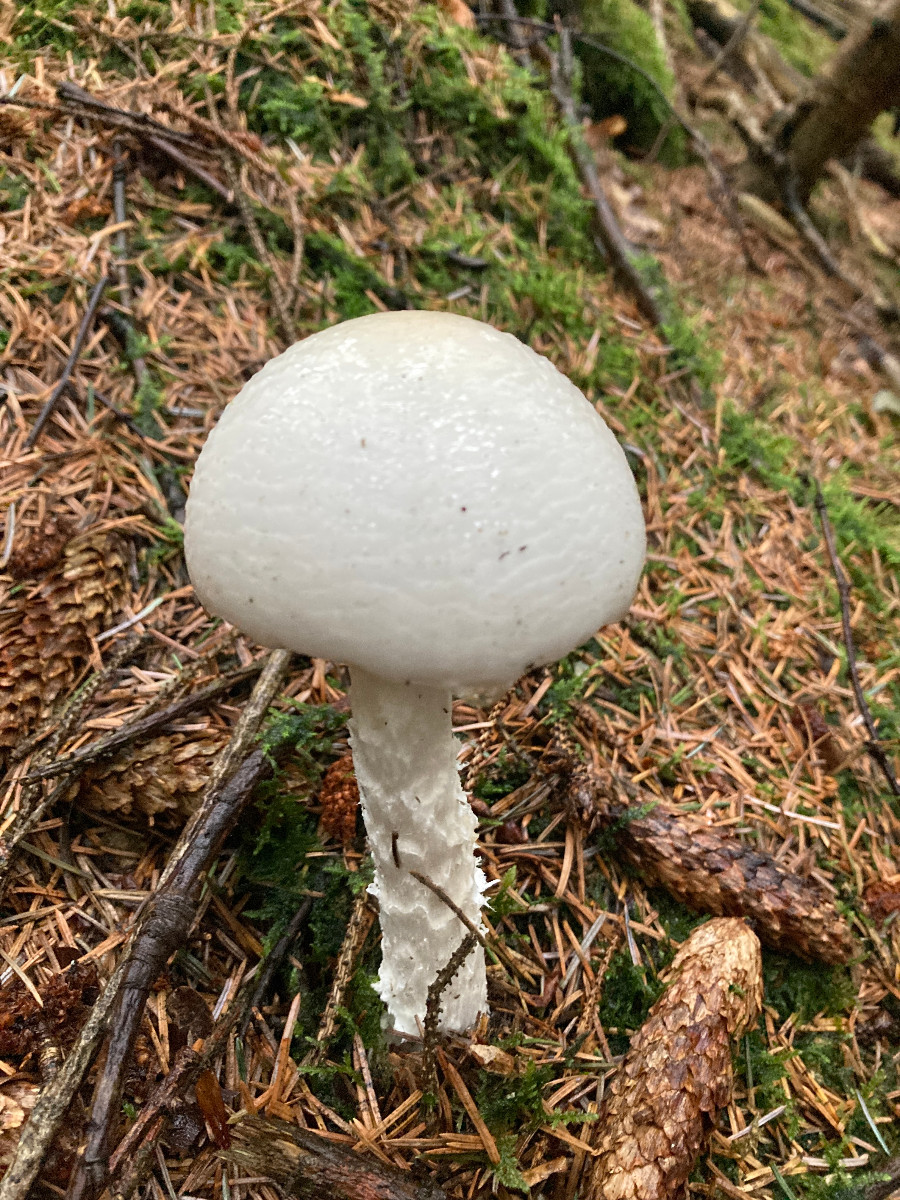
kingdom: Fungi
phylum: Basidiomycota
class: Agaricomycetes
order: Agaricales
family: Amanitaceae
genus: Amanita
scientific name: Amanita virosa
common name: snehvid fluesvamp
